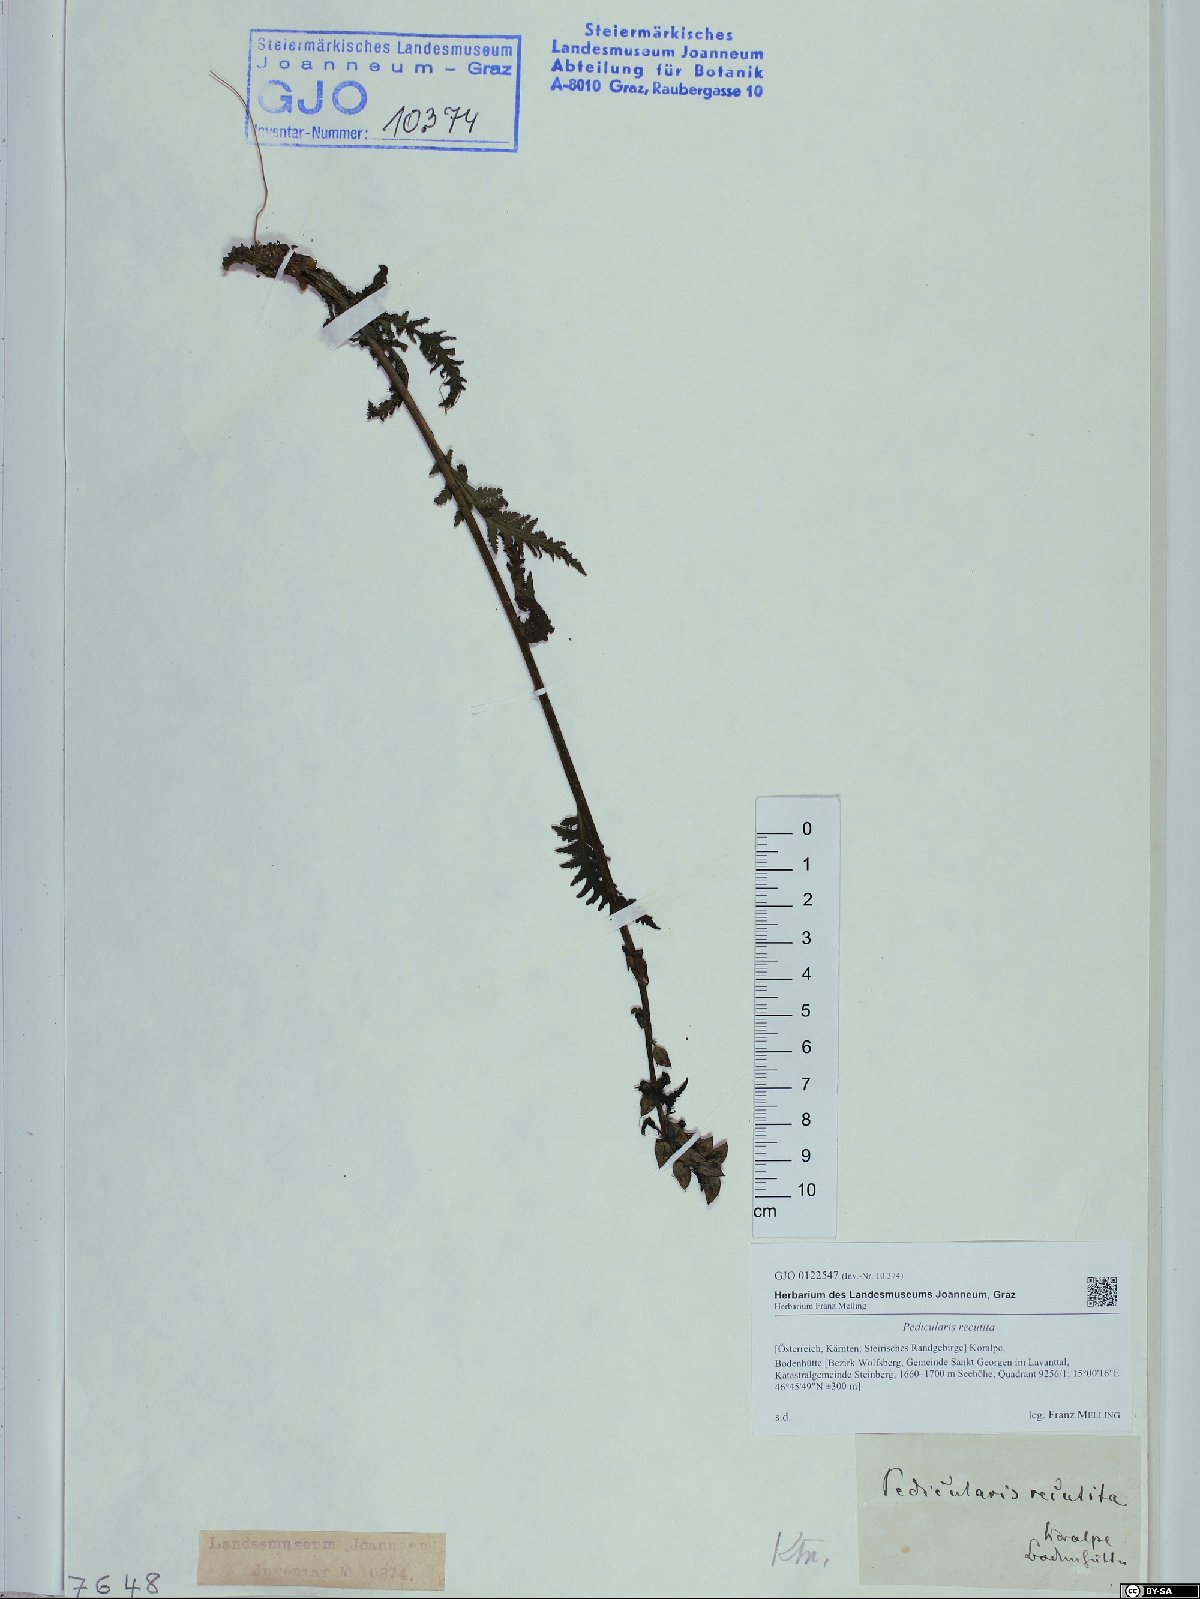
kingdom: Plantae
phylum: Tracheophyta
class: Magnoliopsida
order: Lamiales
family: Orobanchaceae
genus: Pedicularis
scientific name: Pedicularis recutita
